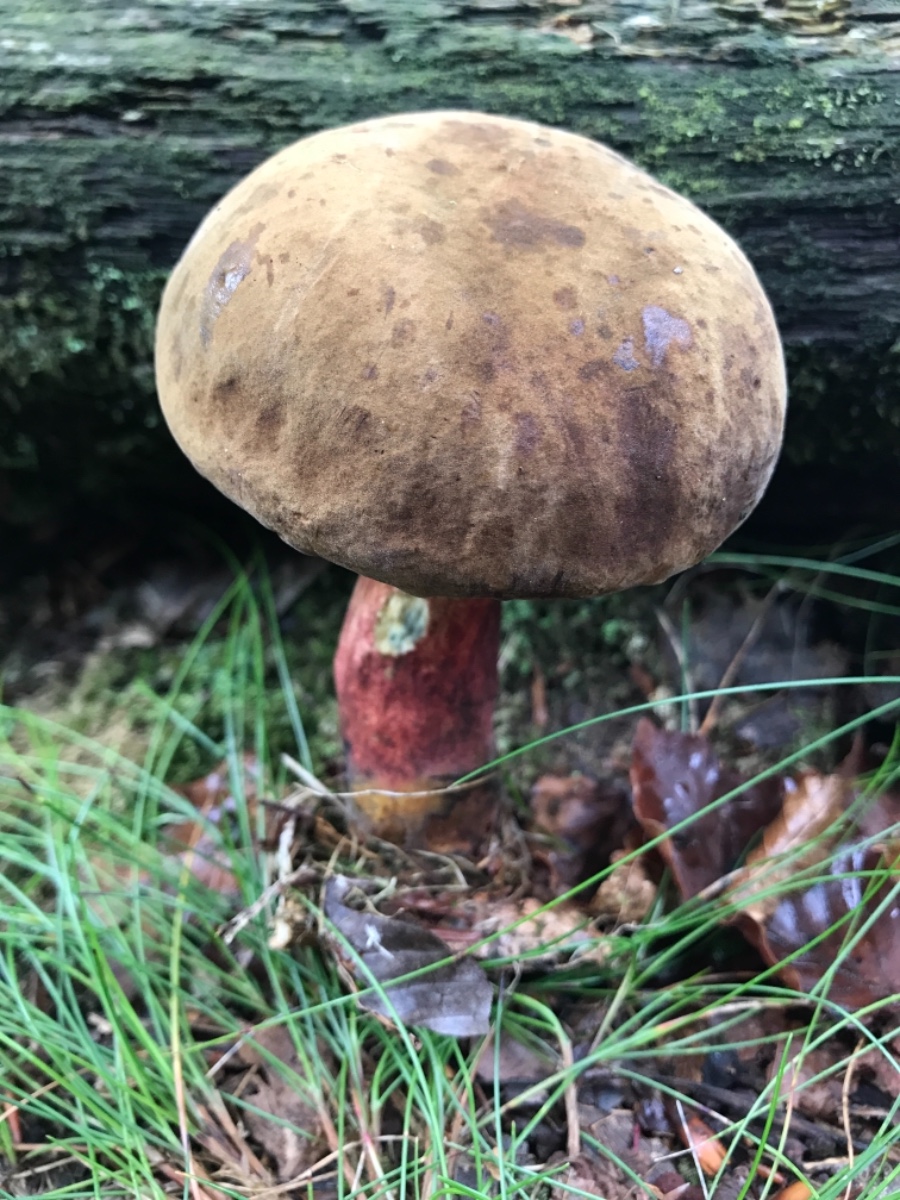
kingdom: Fungi
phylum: Basidiomycota
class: Agaricomycetes
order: Boletales
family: Boletaceae
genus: Neoboletus
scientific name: Neoboletus erythropus
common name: punktstokket indigorørhat
